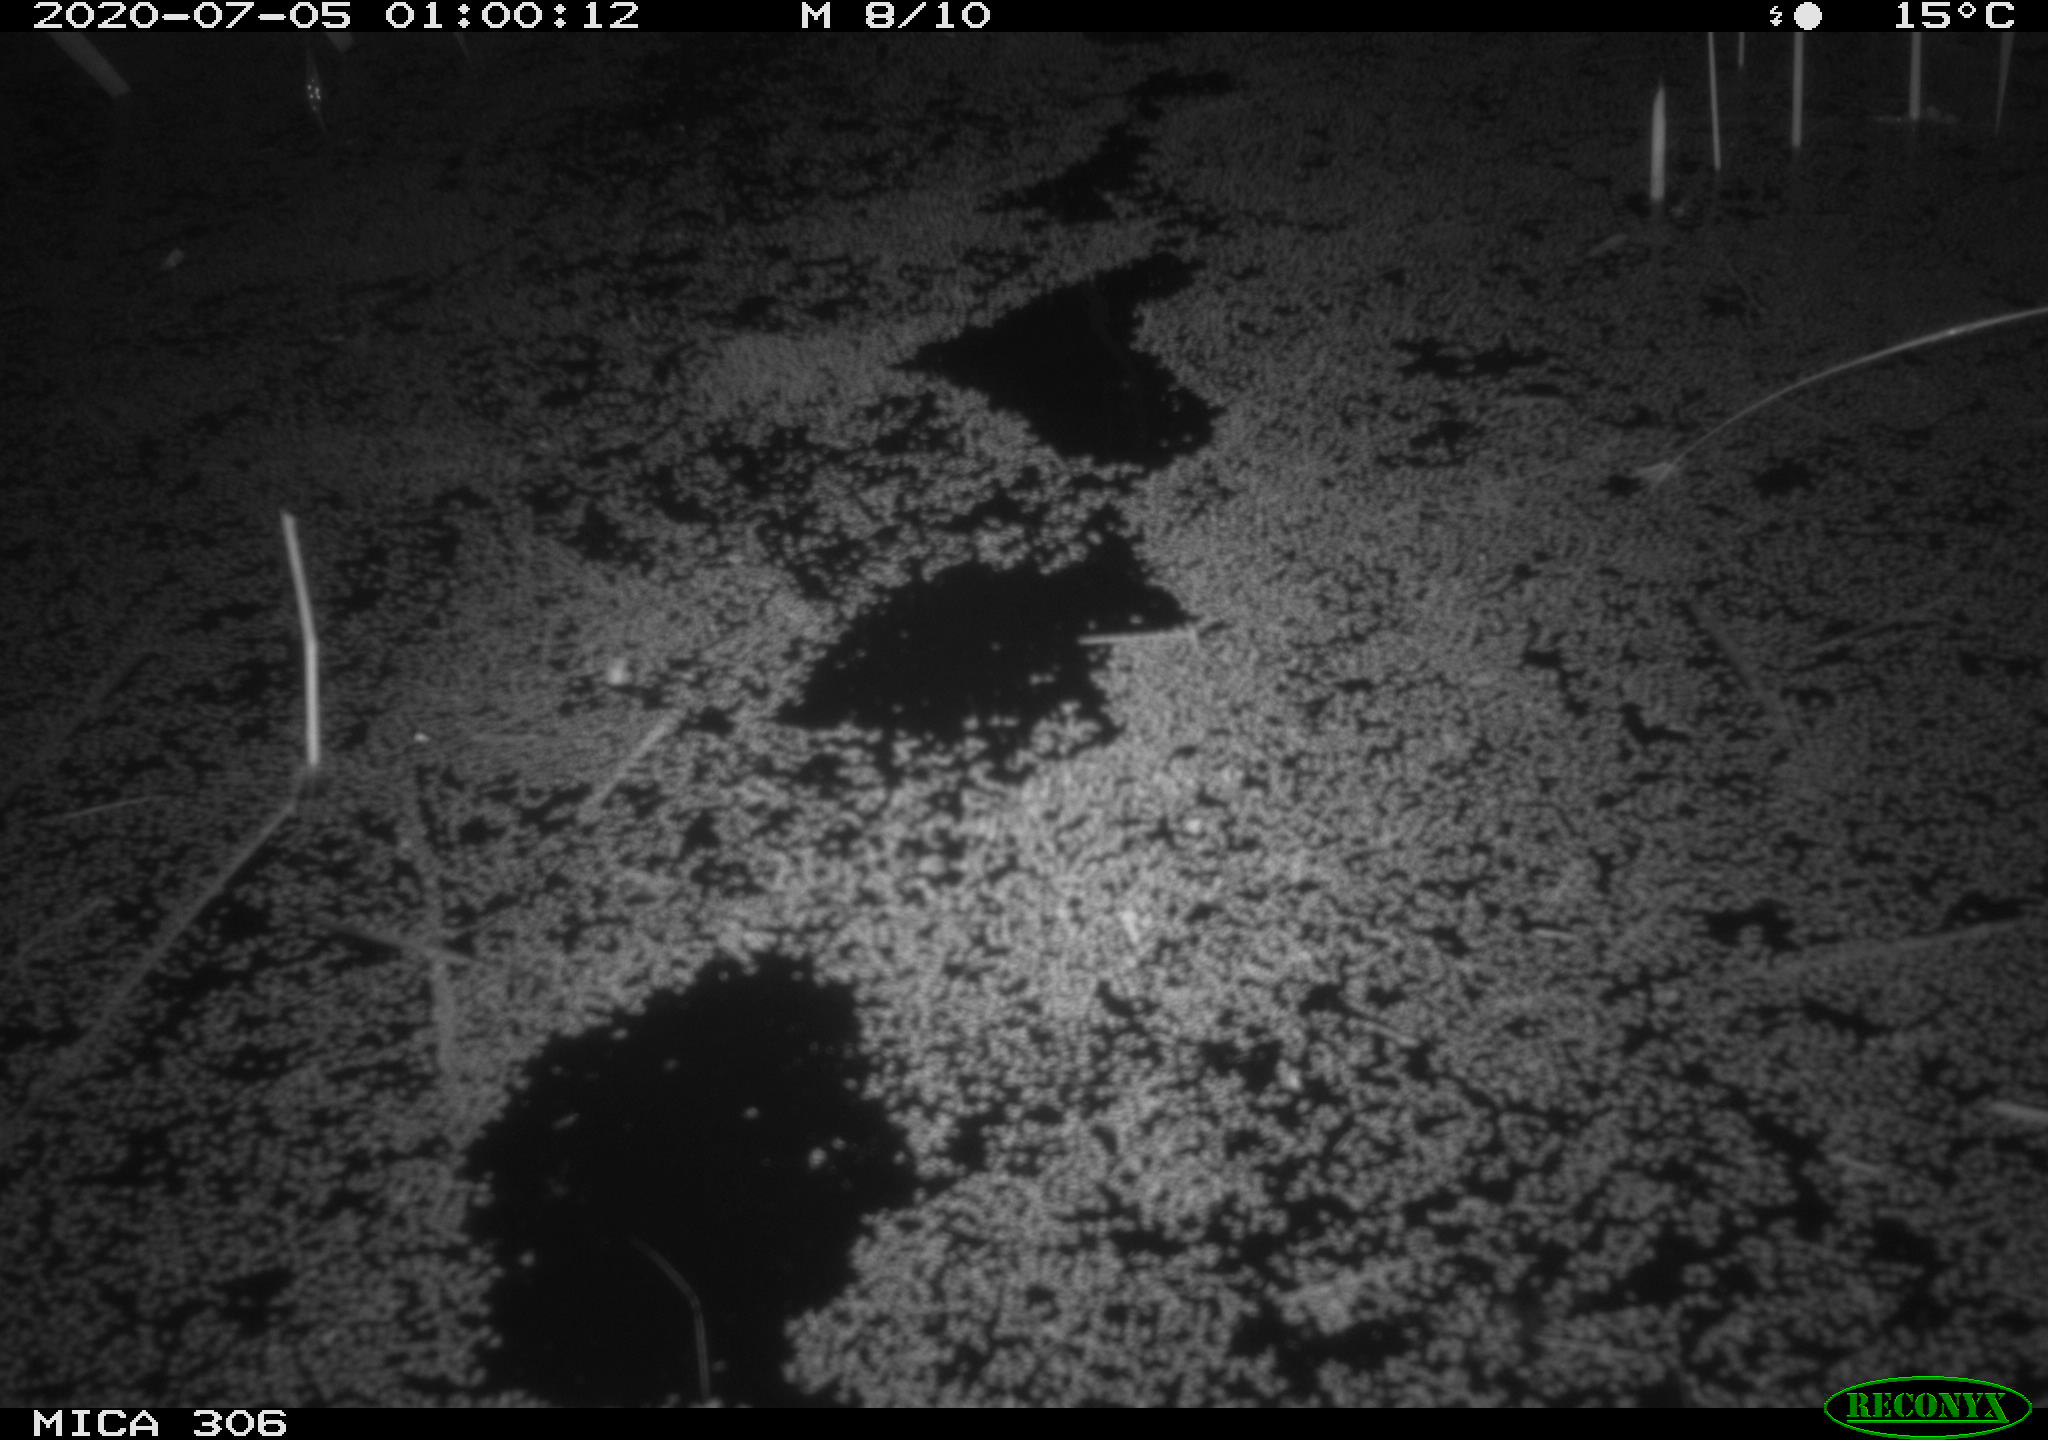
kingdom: Animalia
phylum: Chordata
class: Mammalia
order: Rodentia
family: Muridae
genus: Rattus
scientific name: Rattus norvegicus
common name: Brown rat
